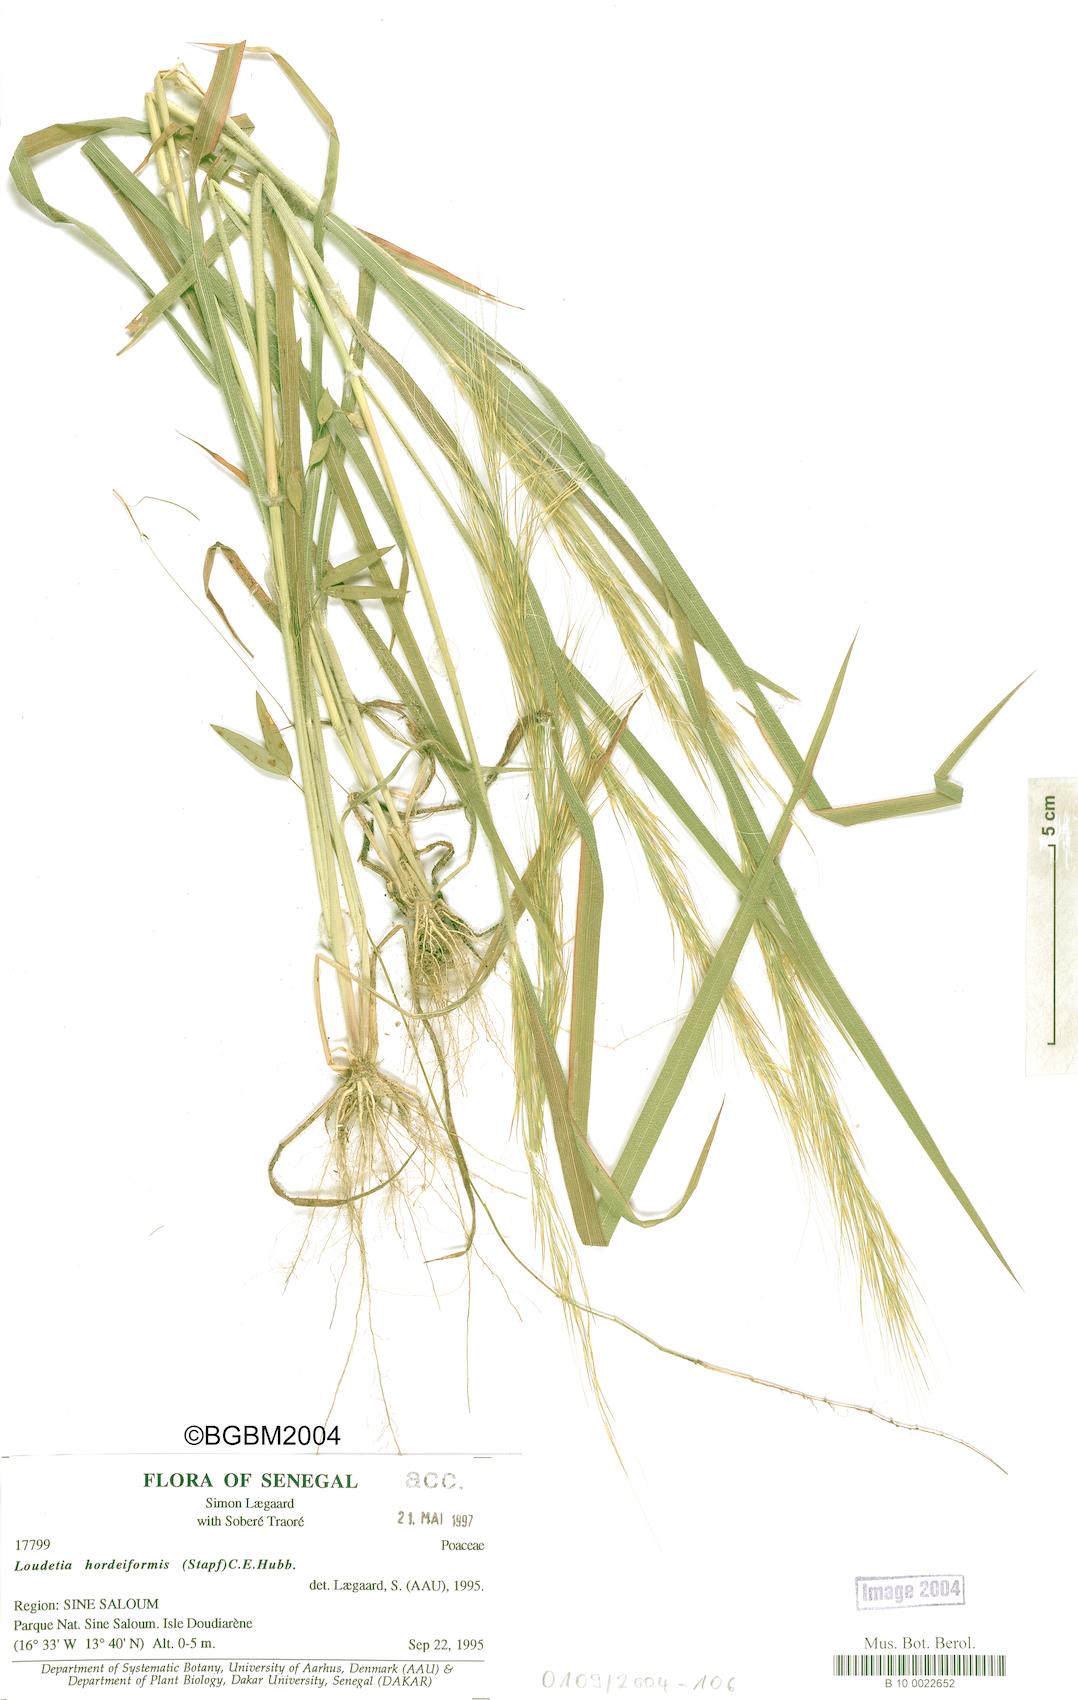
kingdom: Plantae
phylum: Tracheophyta
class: Liliopsida
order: Poales
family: Poaceae
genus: Loudetia
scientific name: Loudetia hordeiformis
